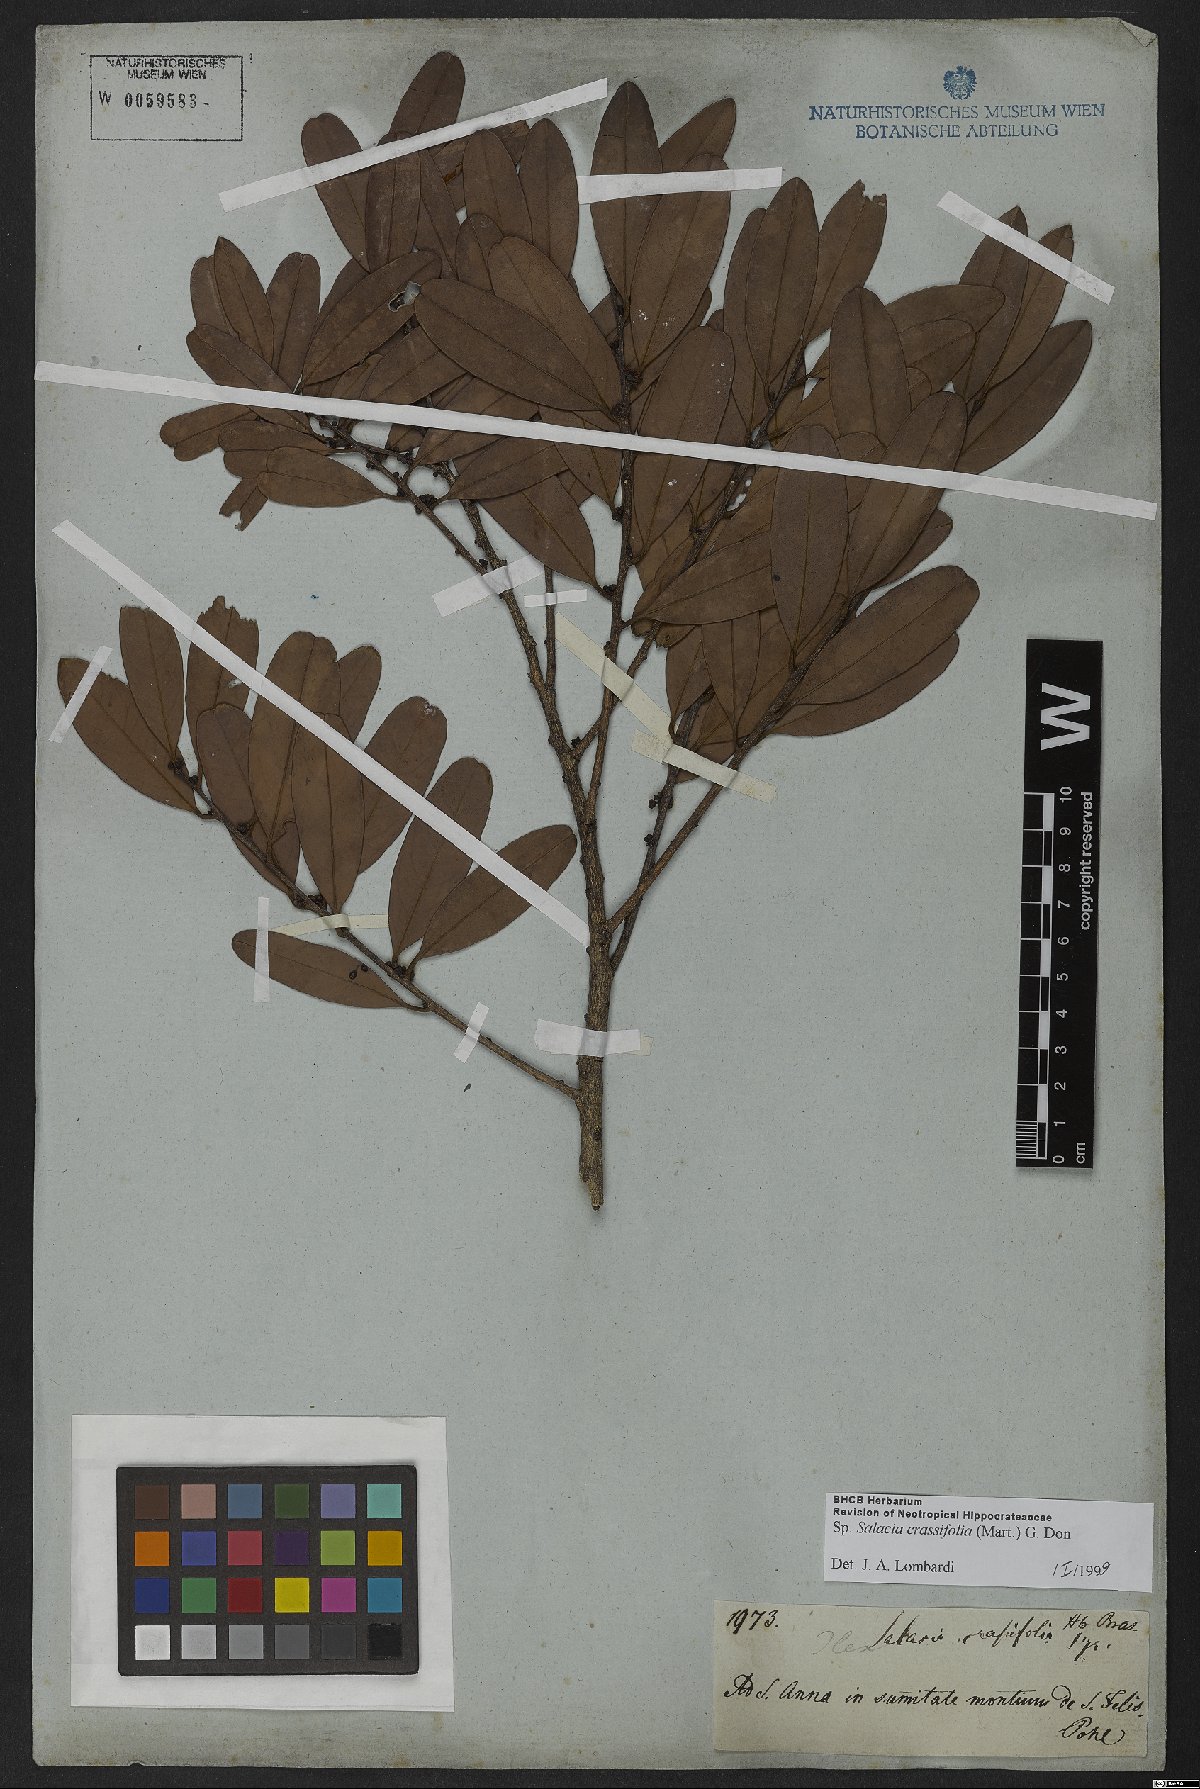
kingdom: Plantae
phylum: Tracheophyta
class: Magnoliopsida
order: Celastrales
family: Celastraceae
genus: Salacia
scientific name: Salacia crassifolia
